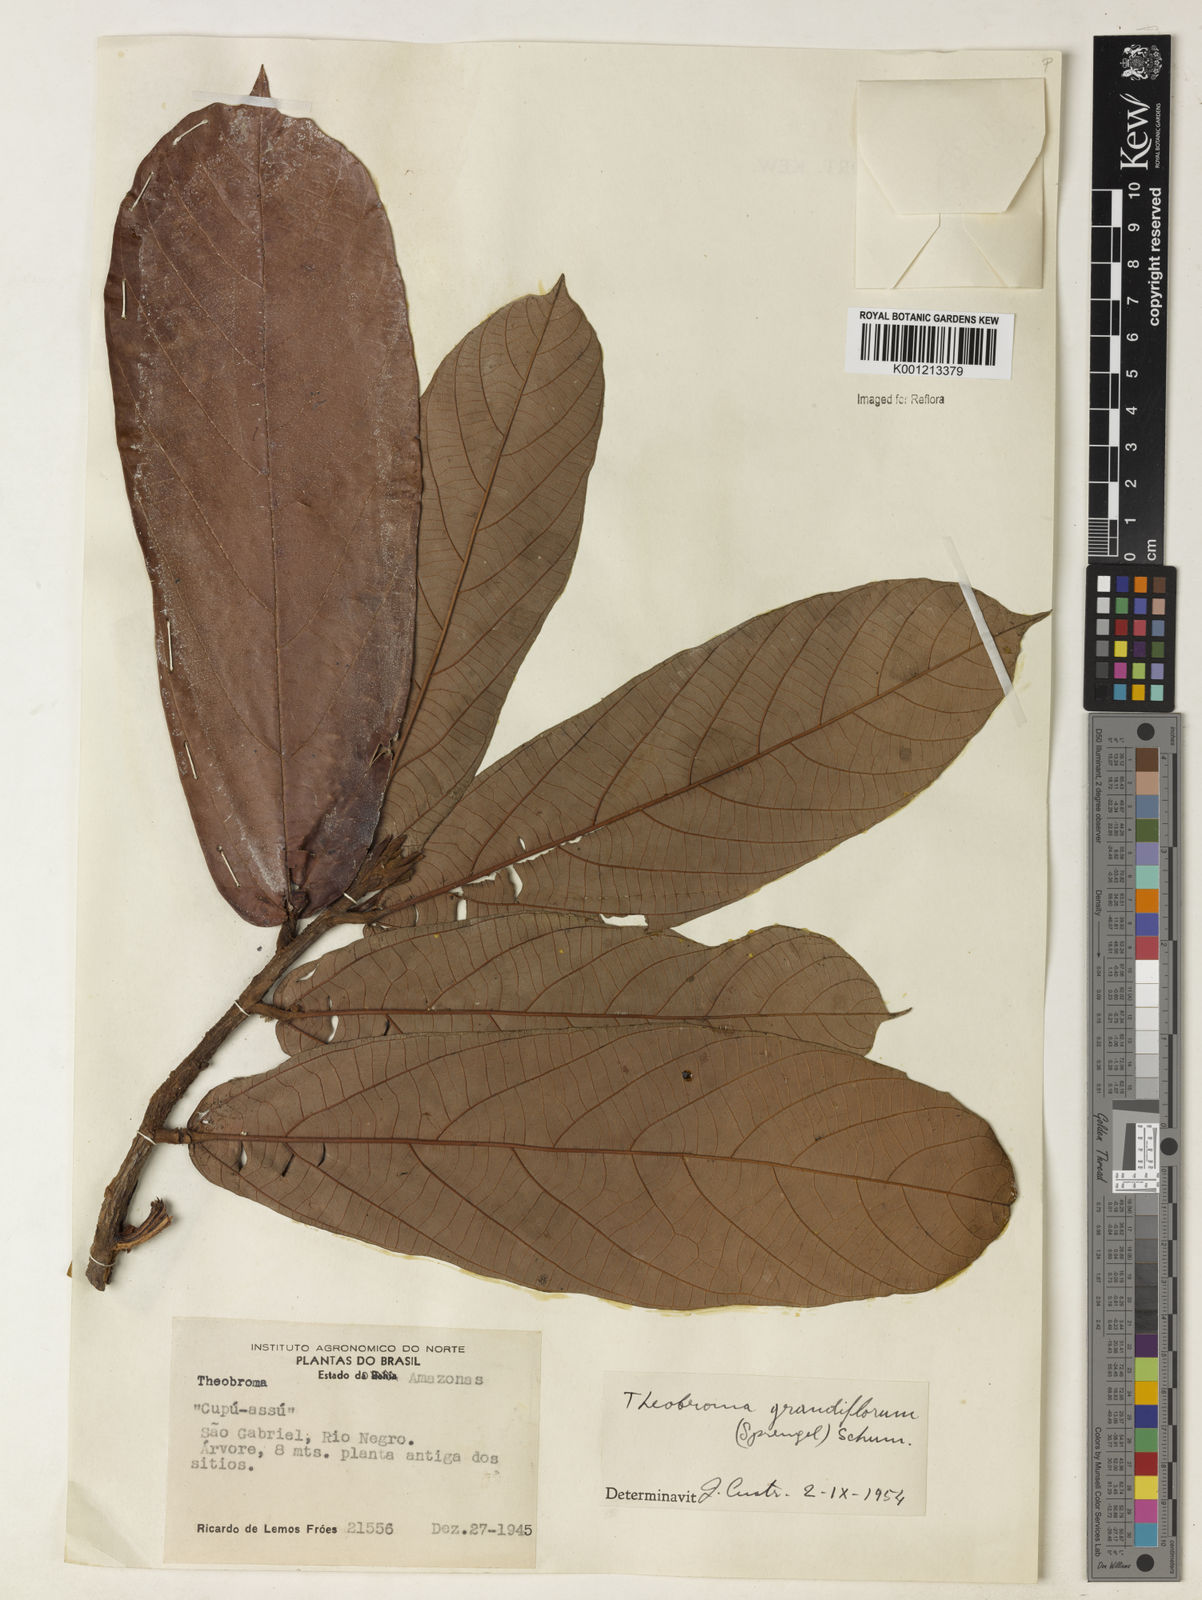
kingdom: Plantae
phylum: Tracheophyta
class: Magnoliopsida
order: Malvales
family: Malvaceae
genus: Theobroma
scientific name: Theobroma grandiflorum
